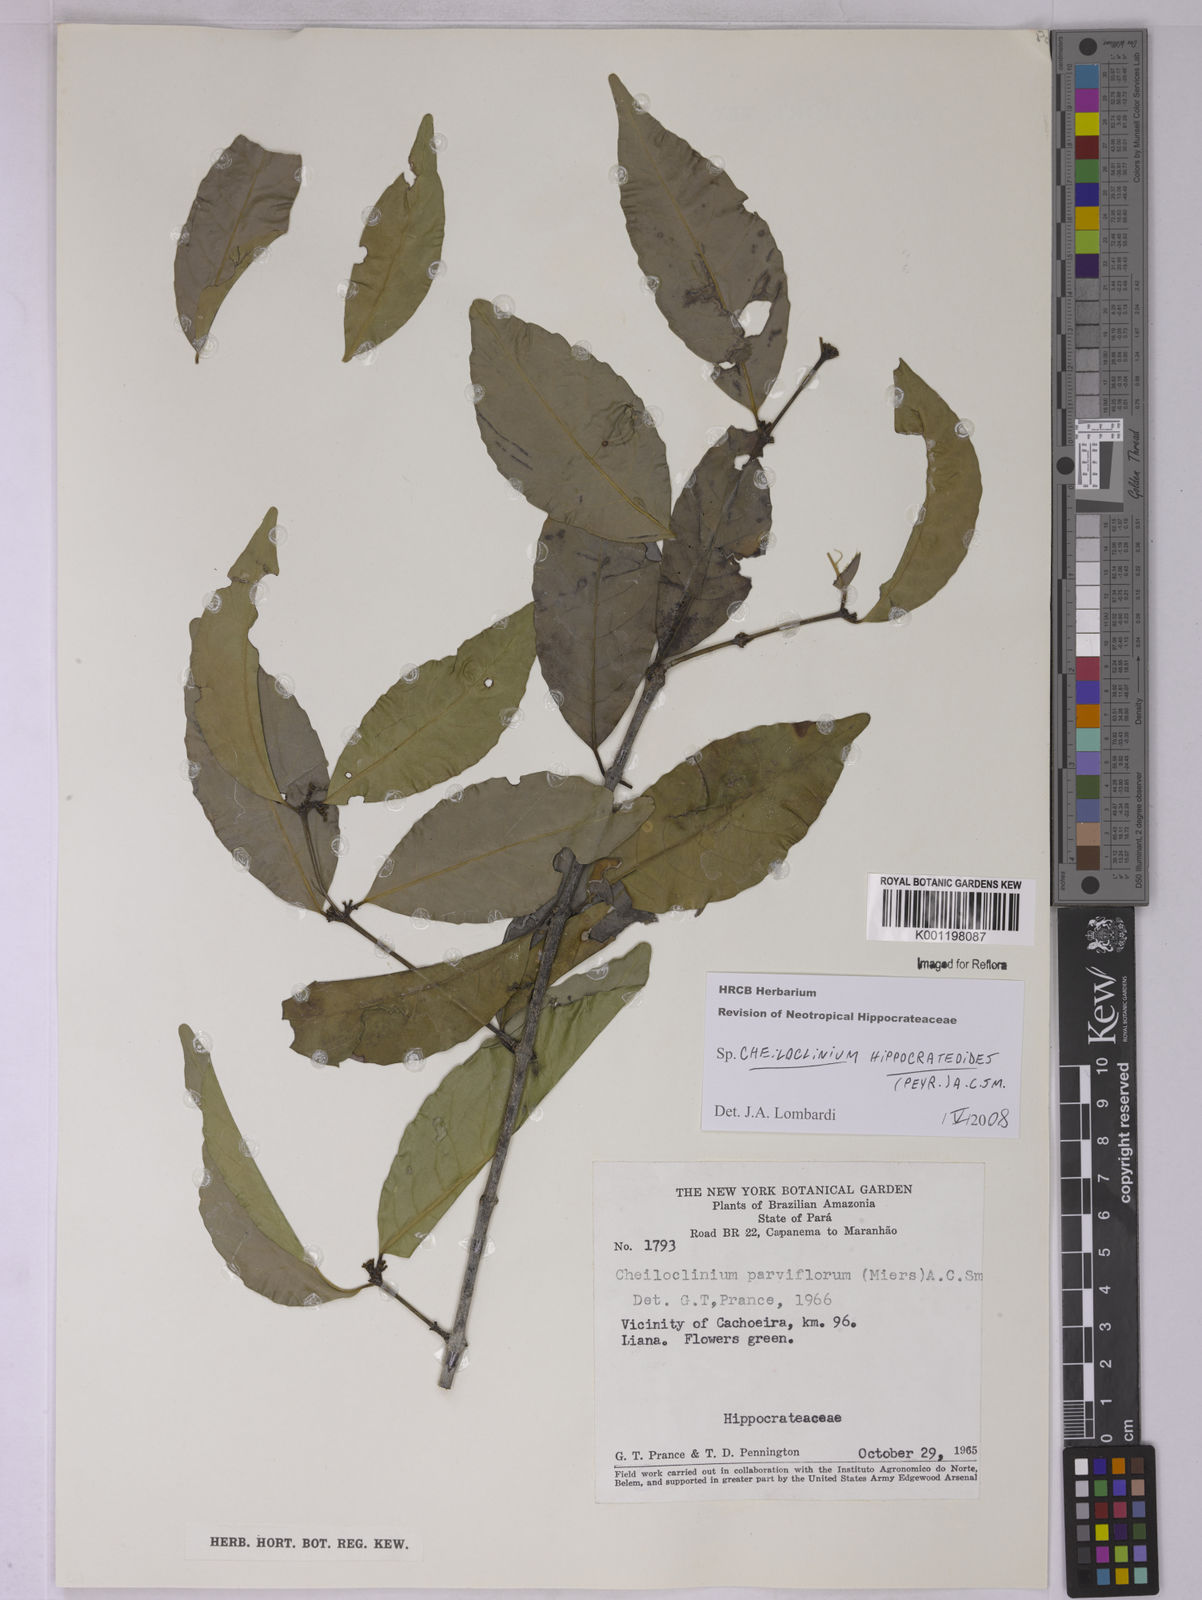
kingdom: Plantae
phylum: Tracheophyta
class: Magnoliopsida
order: Celastrales
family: Celastraceae
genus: Cheiloclinium
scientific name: Cheiloclinium hippocrateoides
